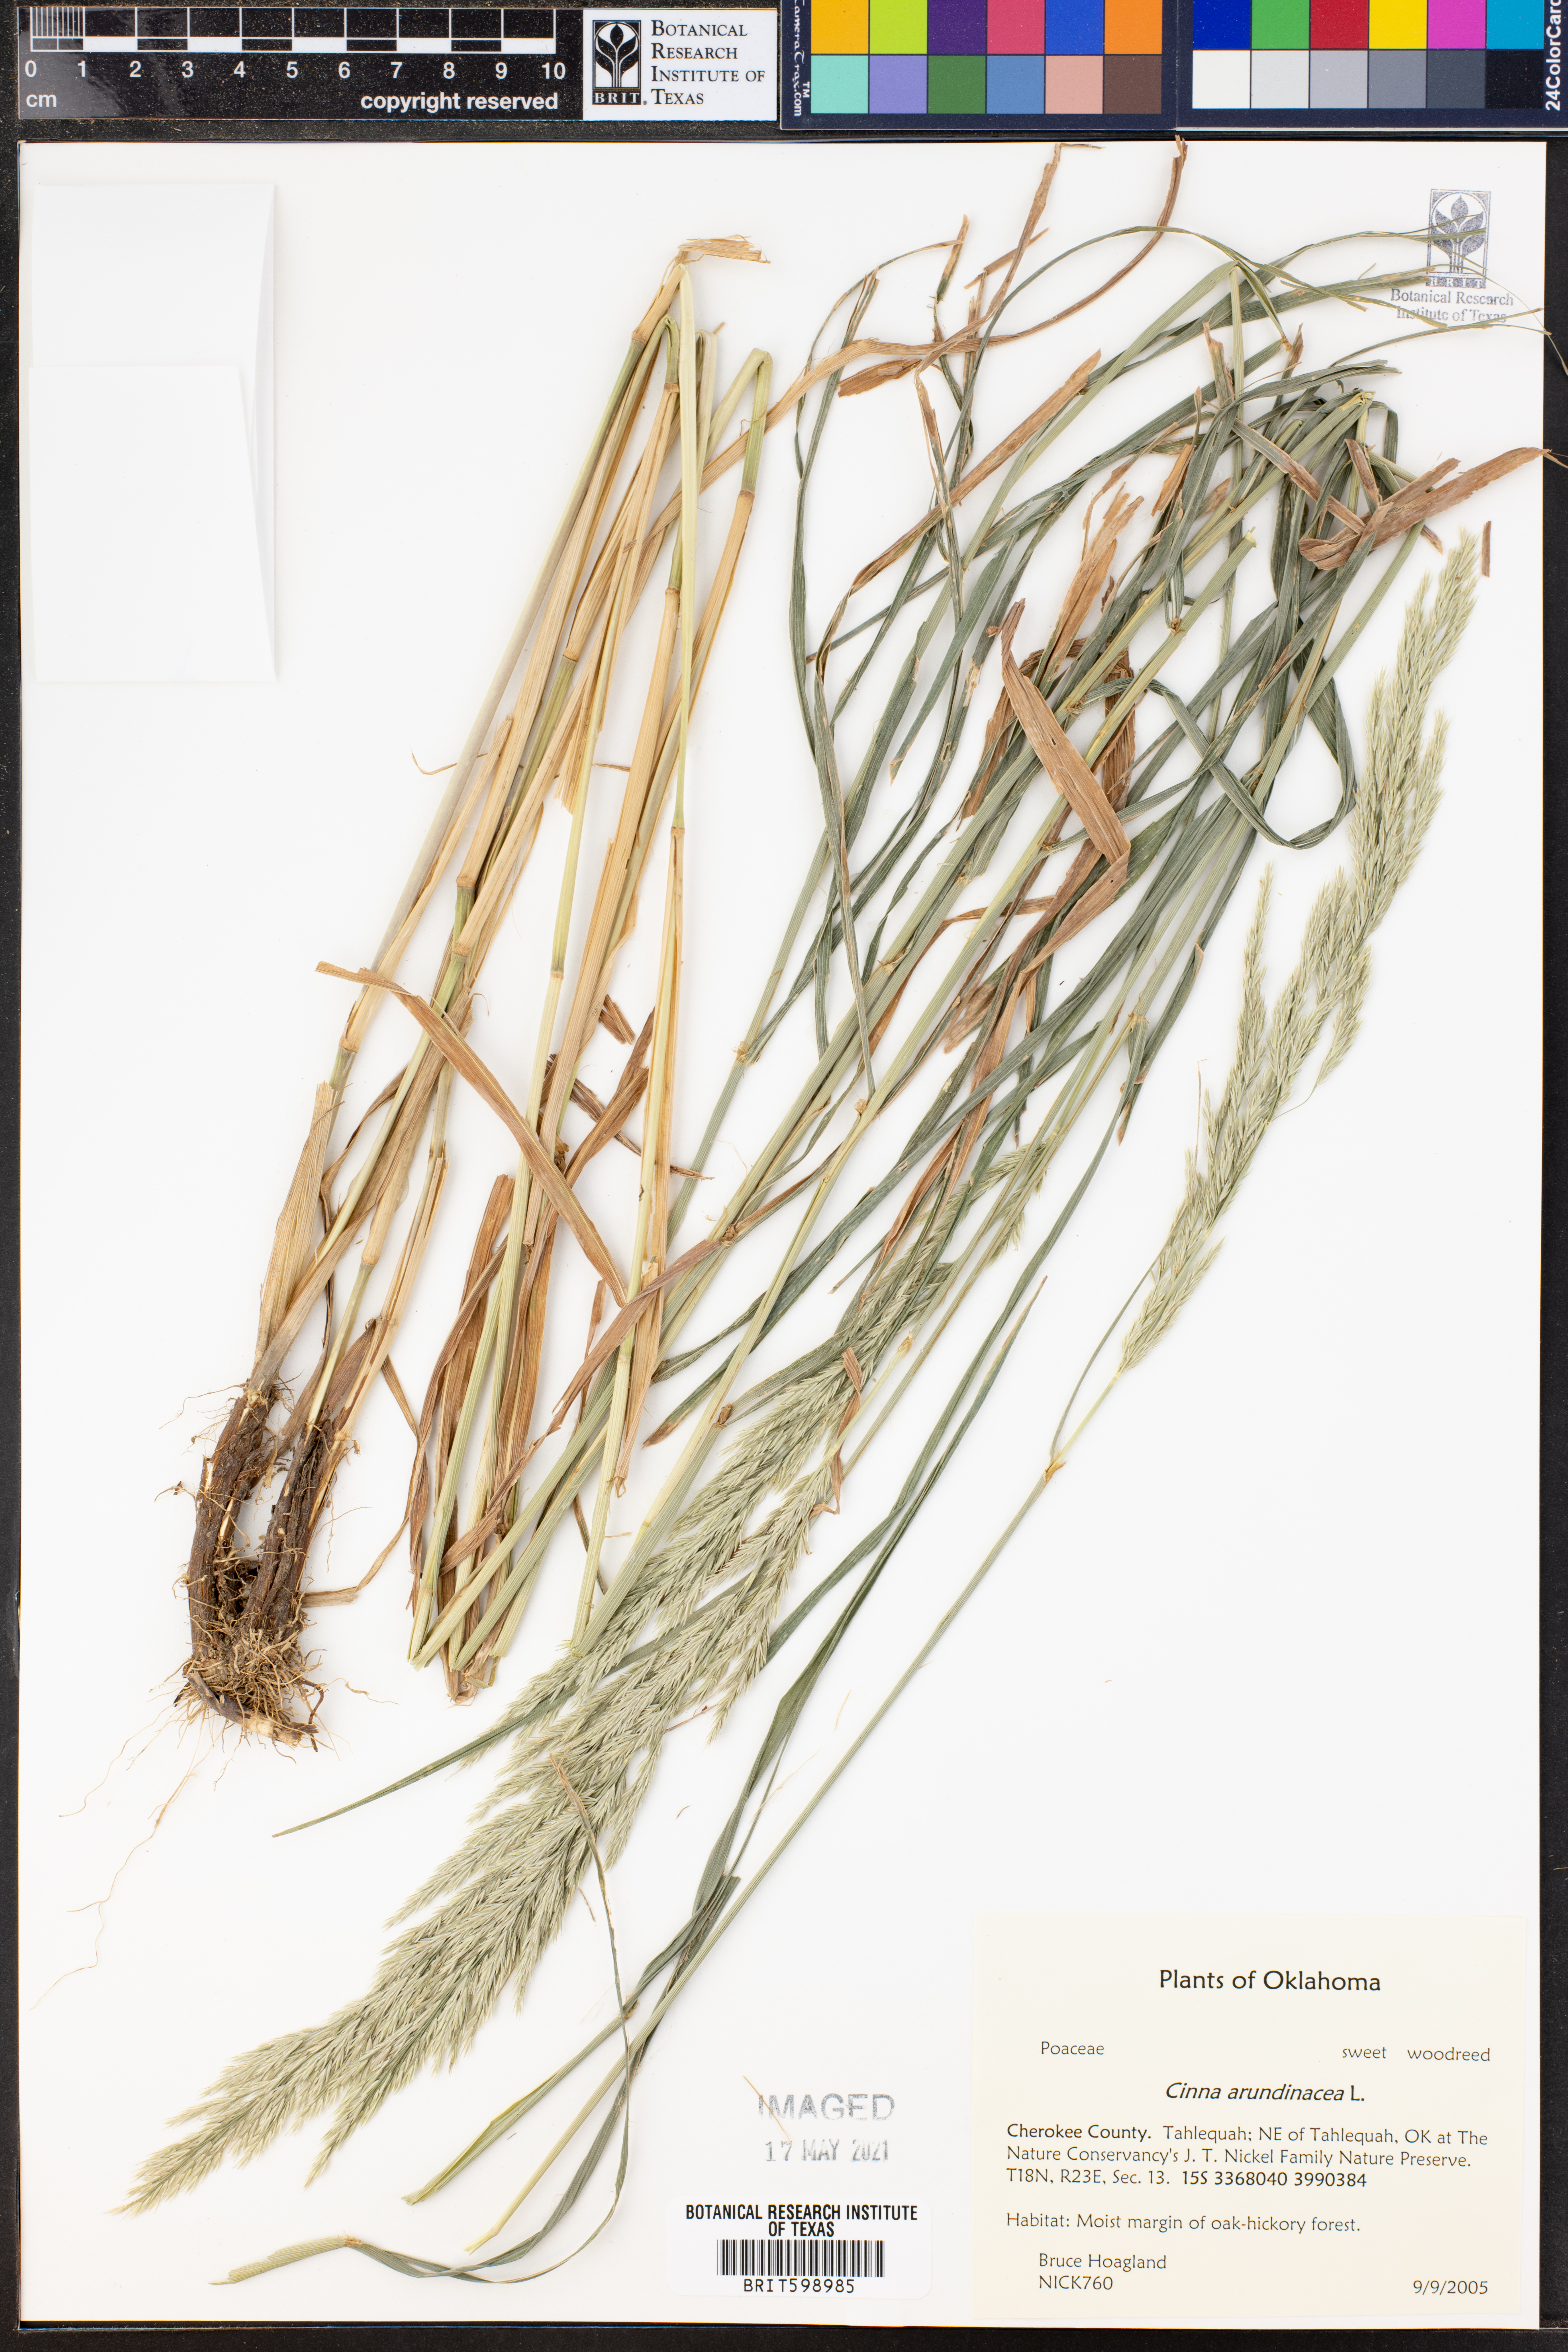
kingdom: Plantae
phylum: Tracheophyta
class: Liliopsida
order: Poales
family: Poaceae
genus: Cinna
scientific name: Cinna arundinacea
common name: Stout woodreed
